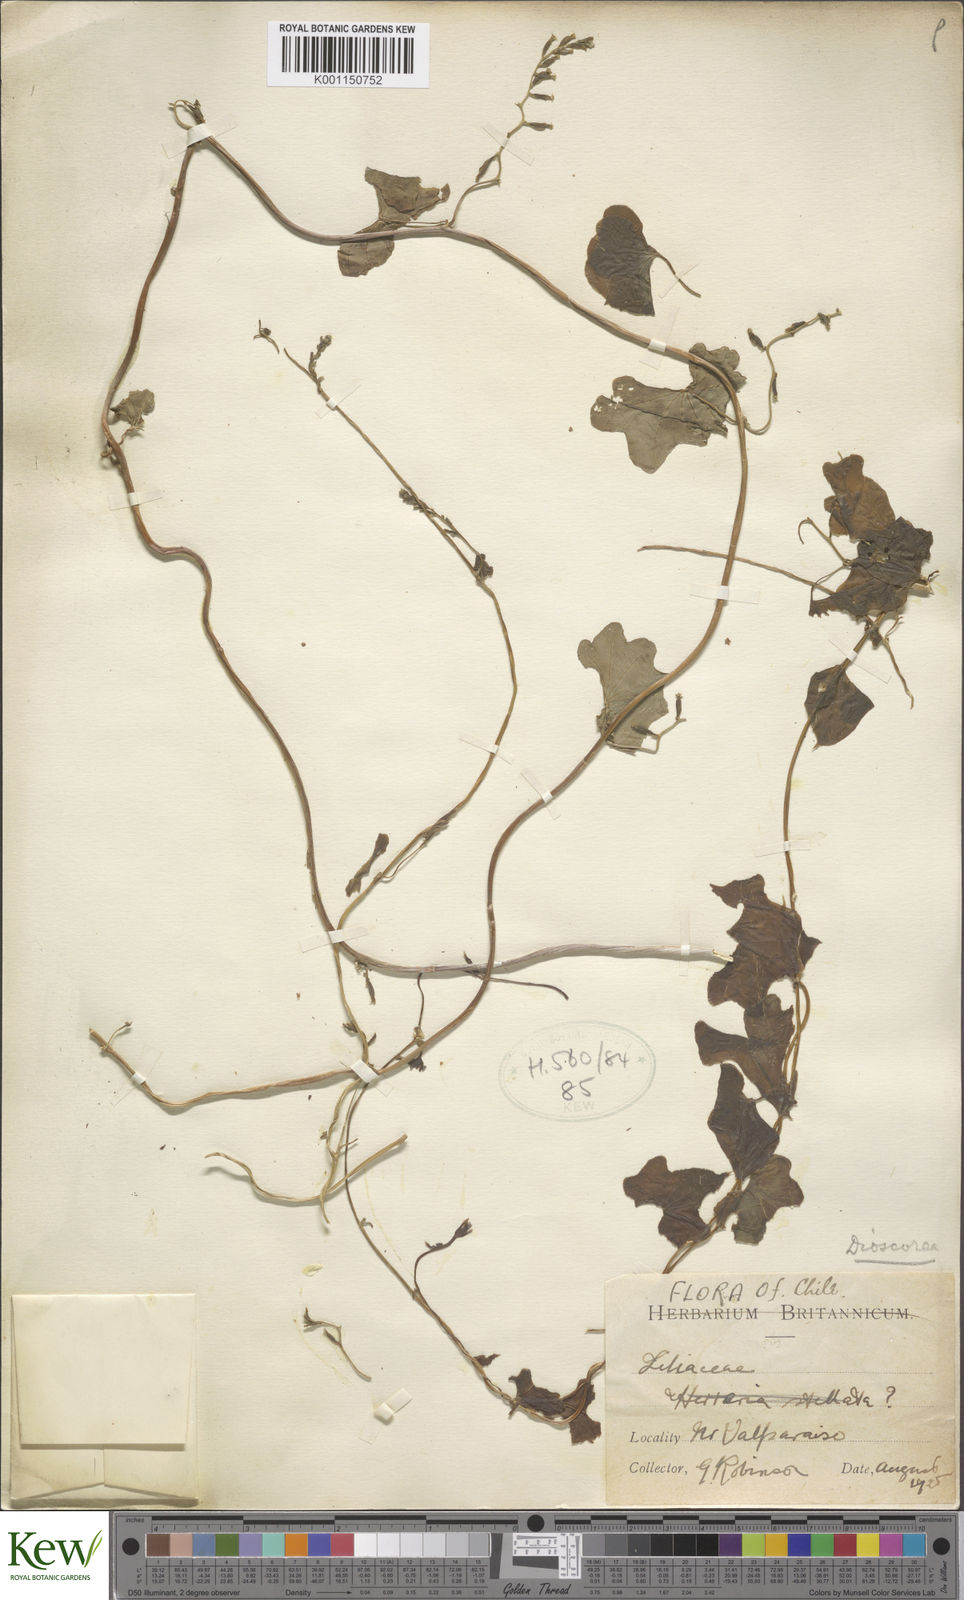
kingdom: Plantae
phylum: Tracheophyta
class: Liliopsida
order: Dioscoreales
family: Dioscoreaceae
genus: Dioscorea
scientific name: Dioscorea
